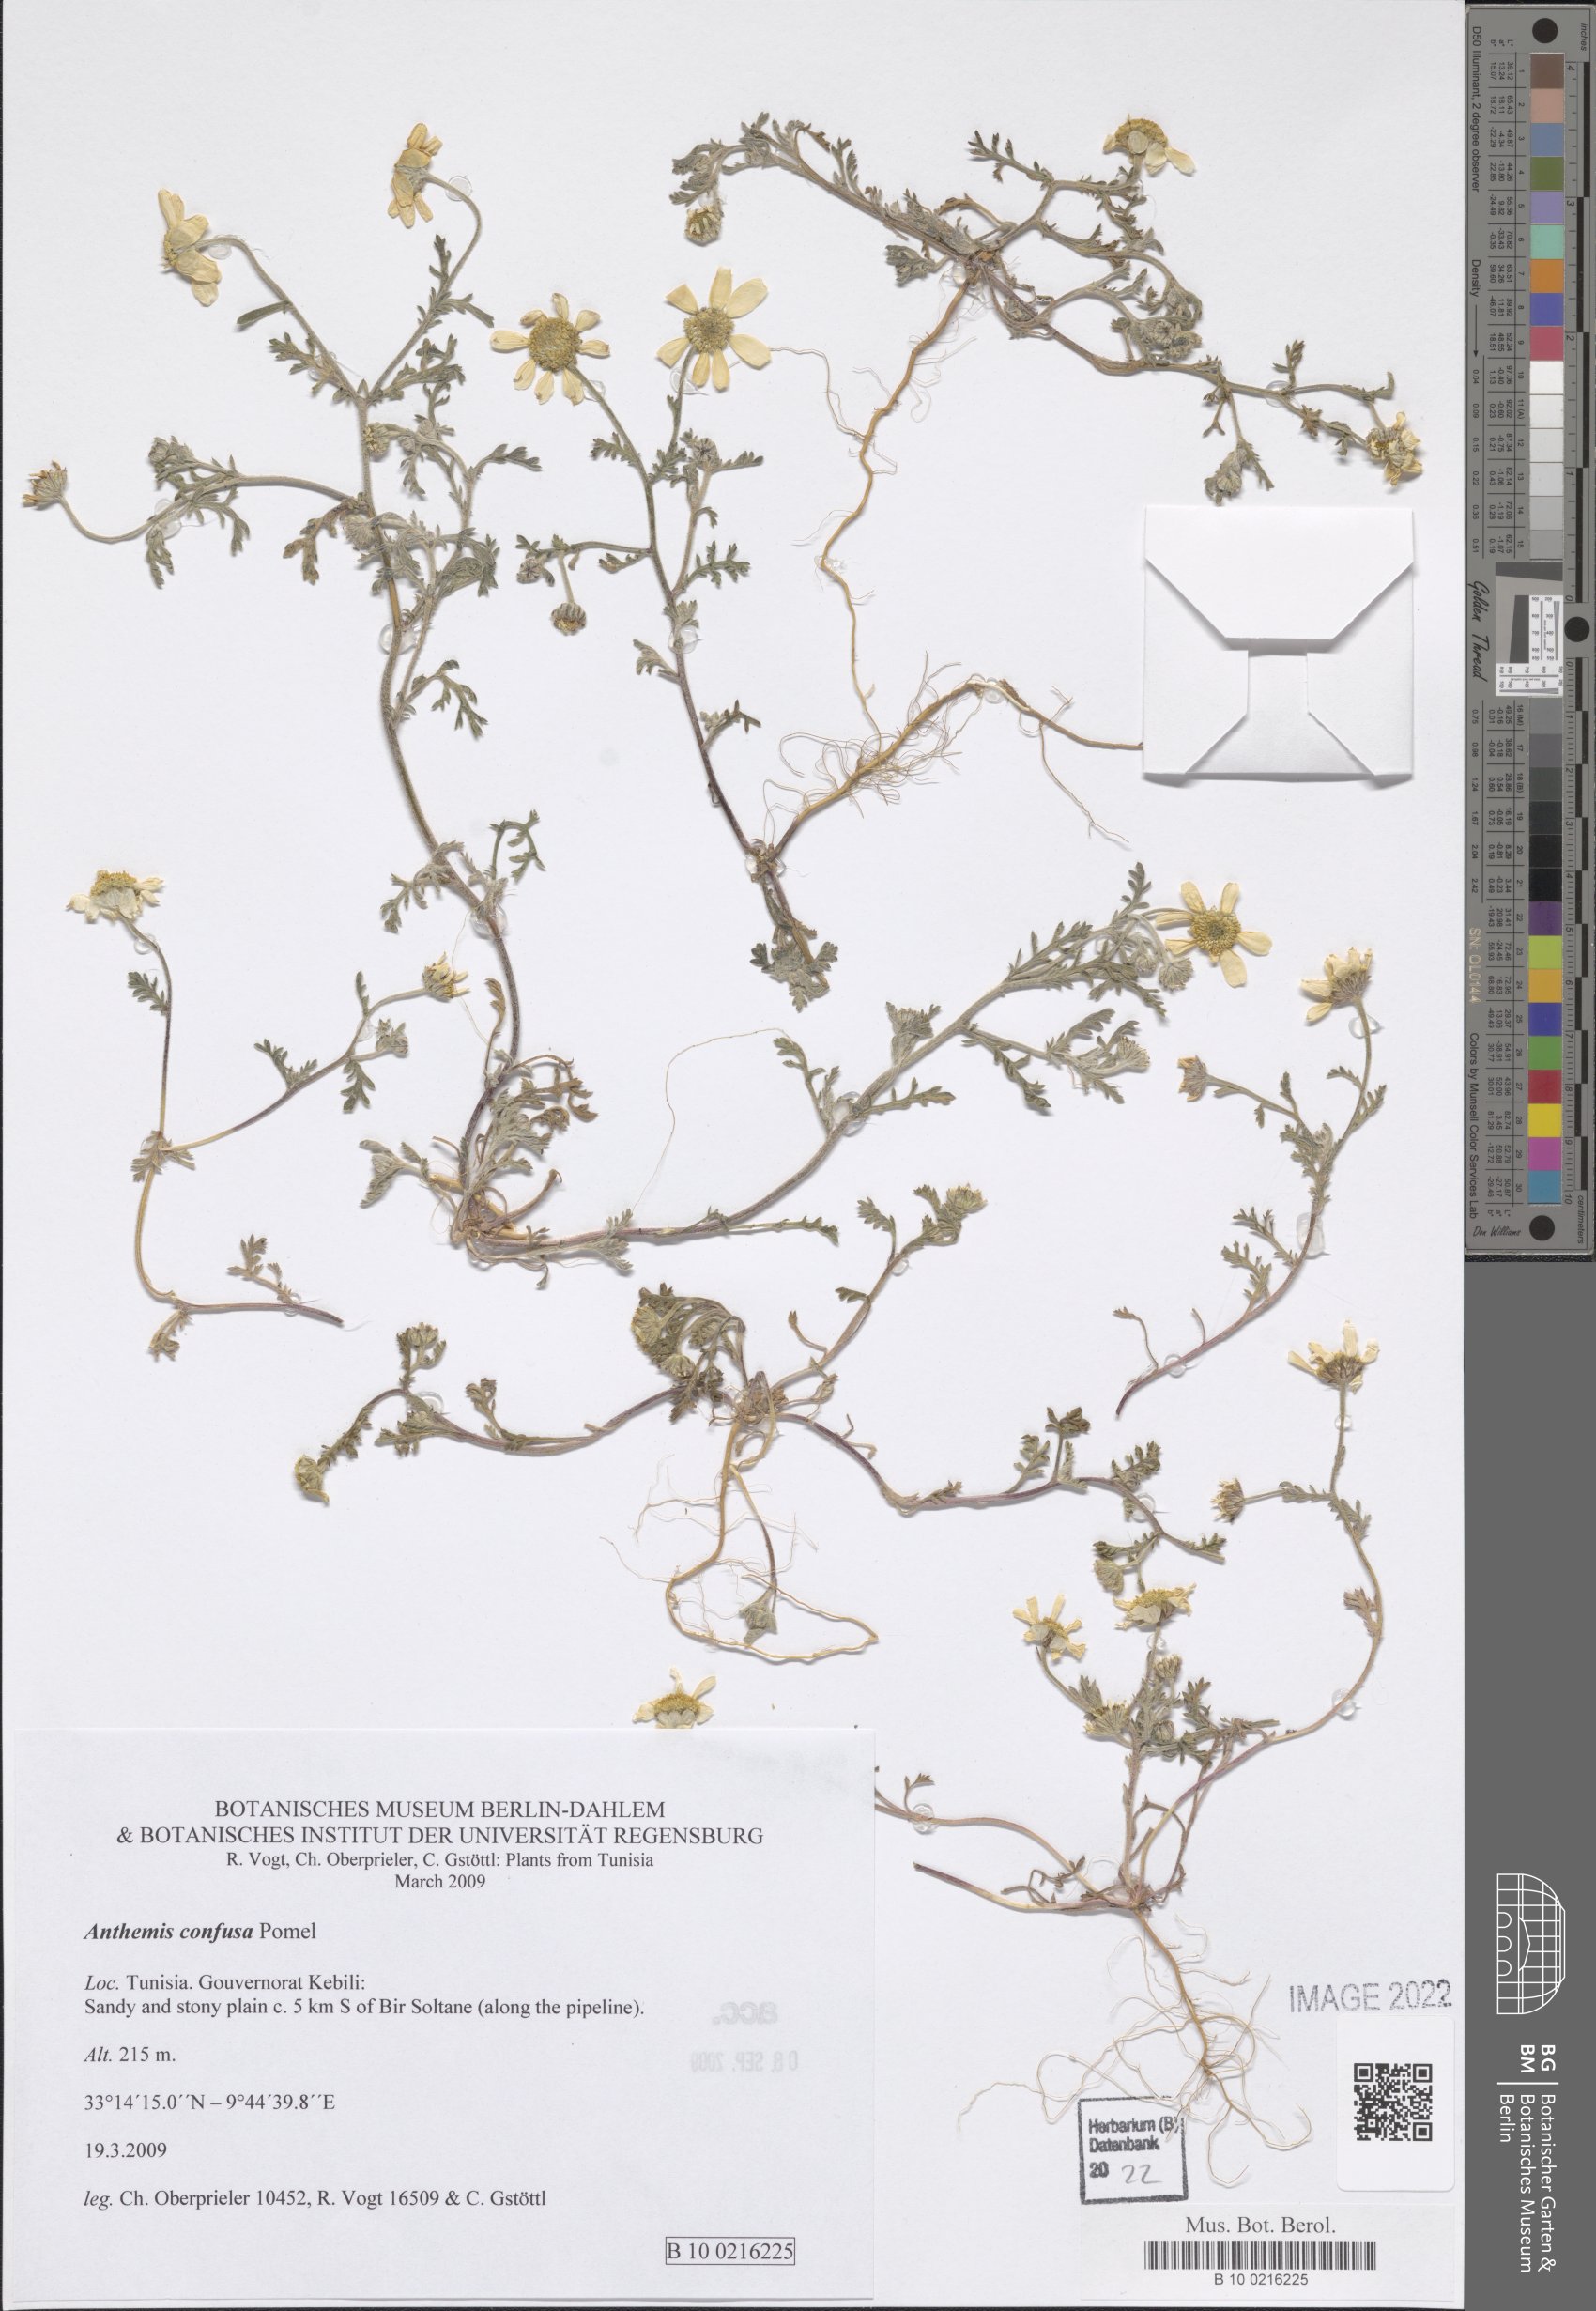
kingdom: Plantae
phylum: Tracheophyta
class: Magnoliopsida
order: Asterales
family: Asteraceae
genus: Anthemis
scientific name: Anthemis confusa
